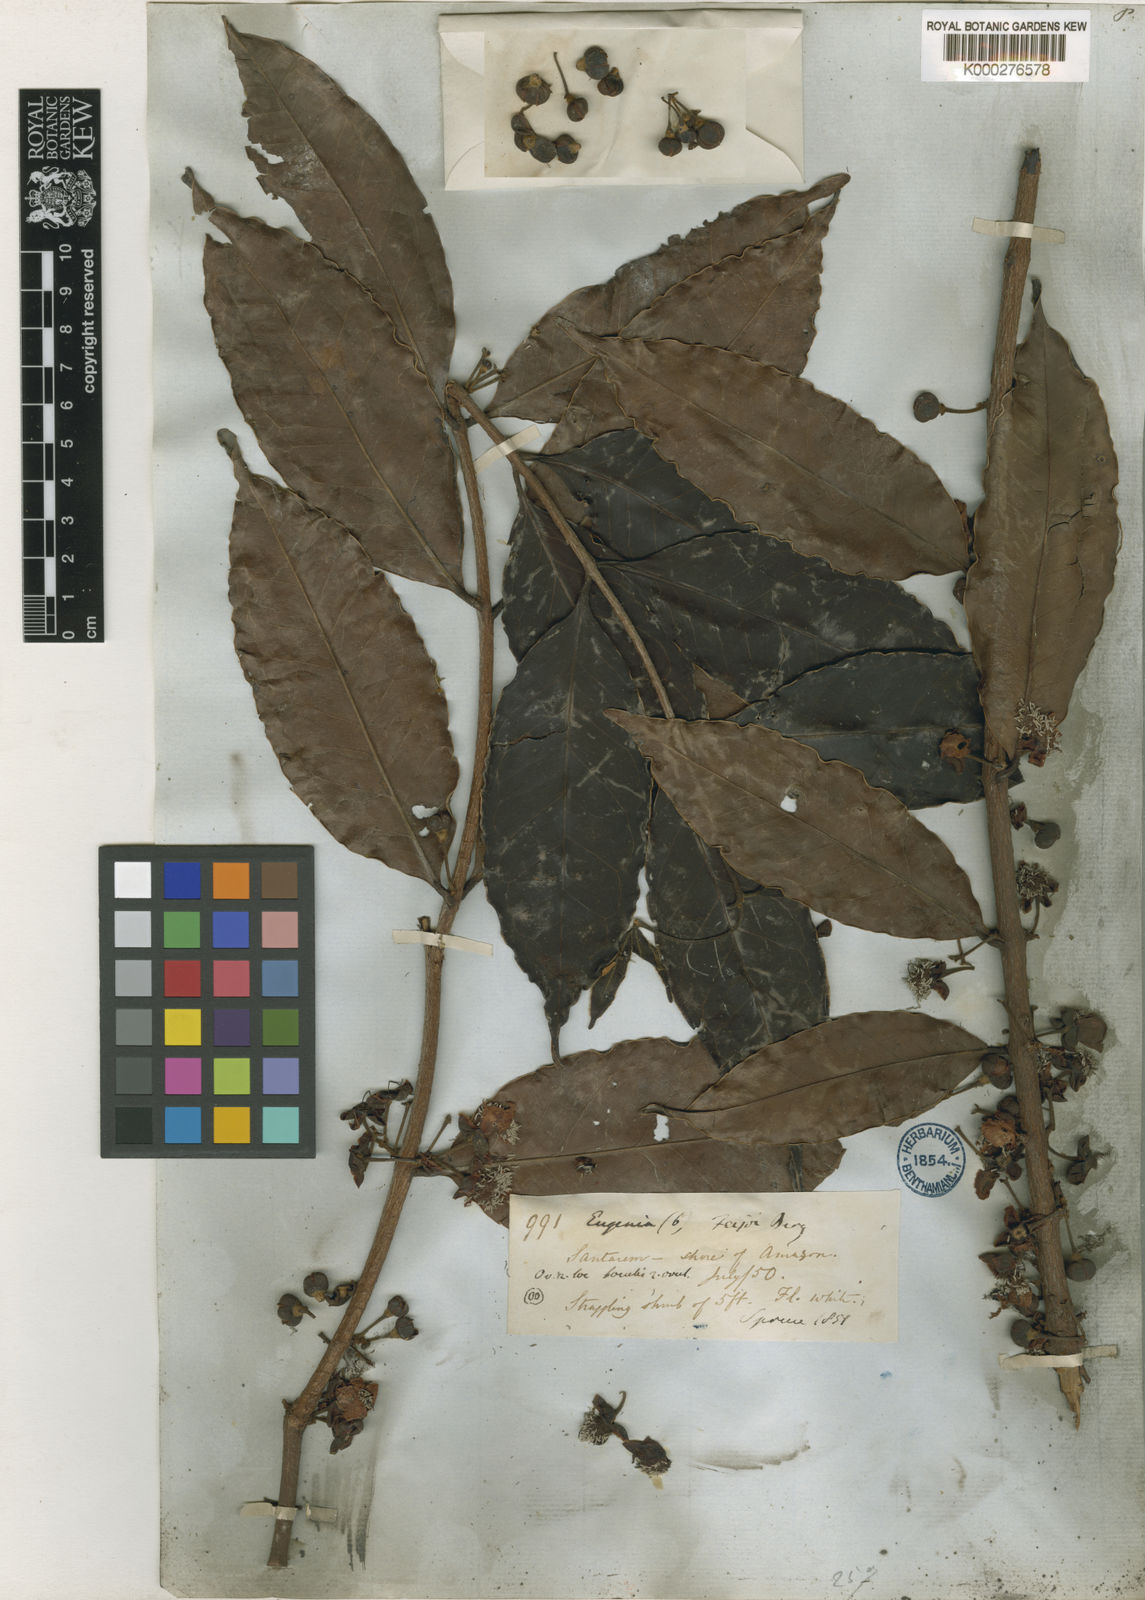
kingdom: Plantae
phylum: Tracheophyta
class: Magnoliopsida
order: Myrtales
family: Myrtaceae
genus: Eugenia
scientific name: Eugenia moschata
